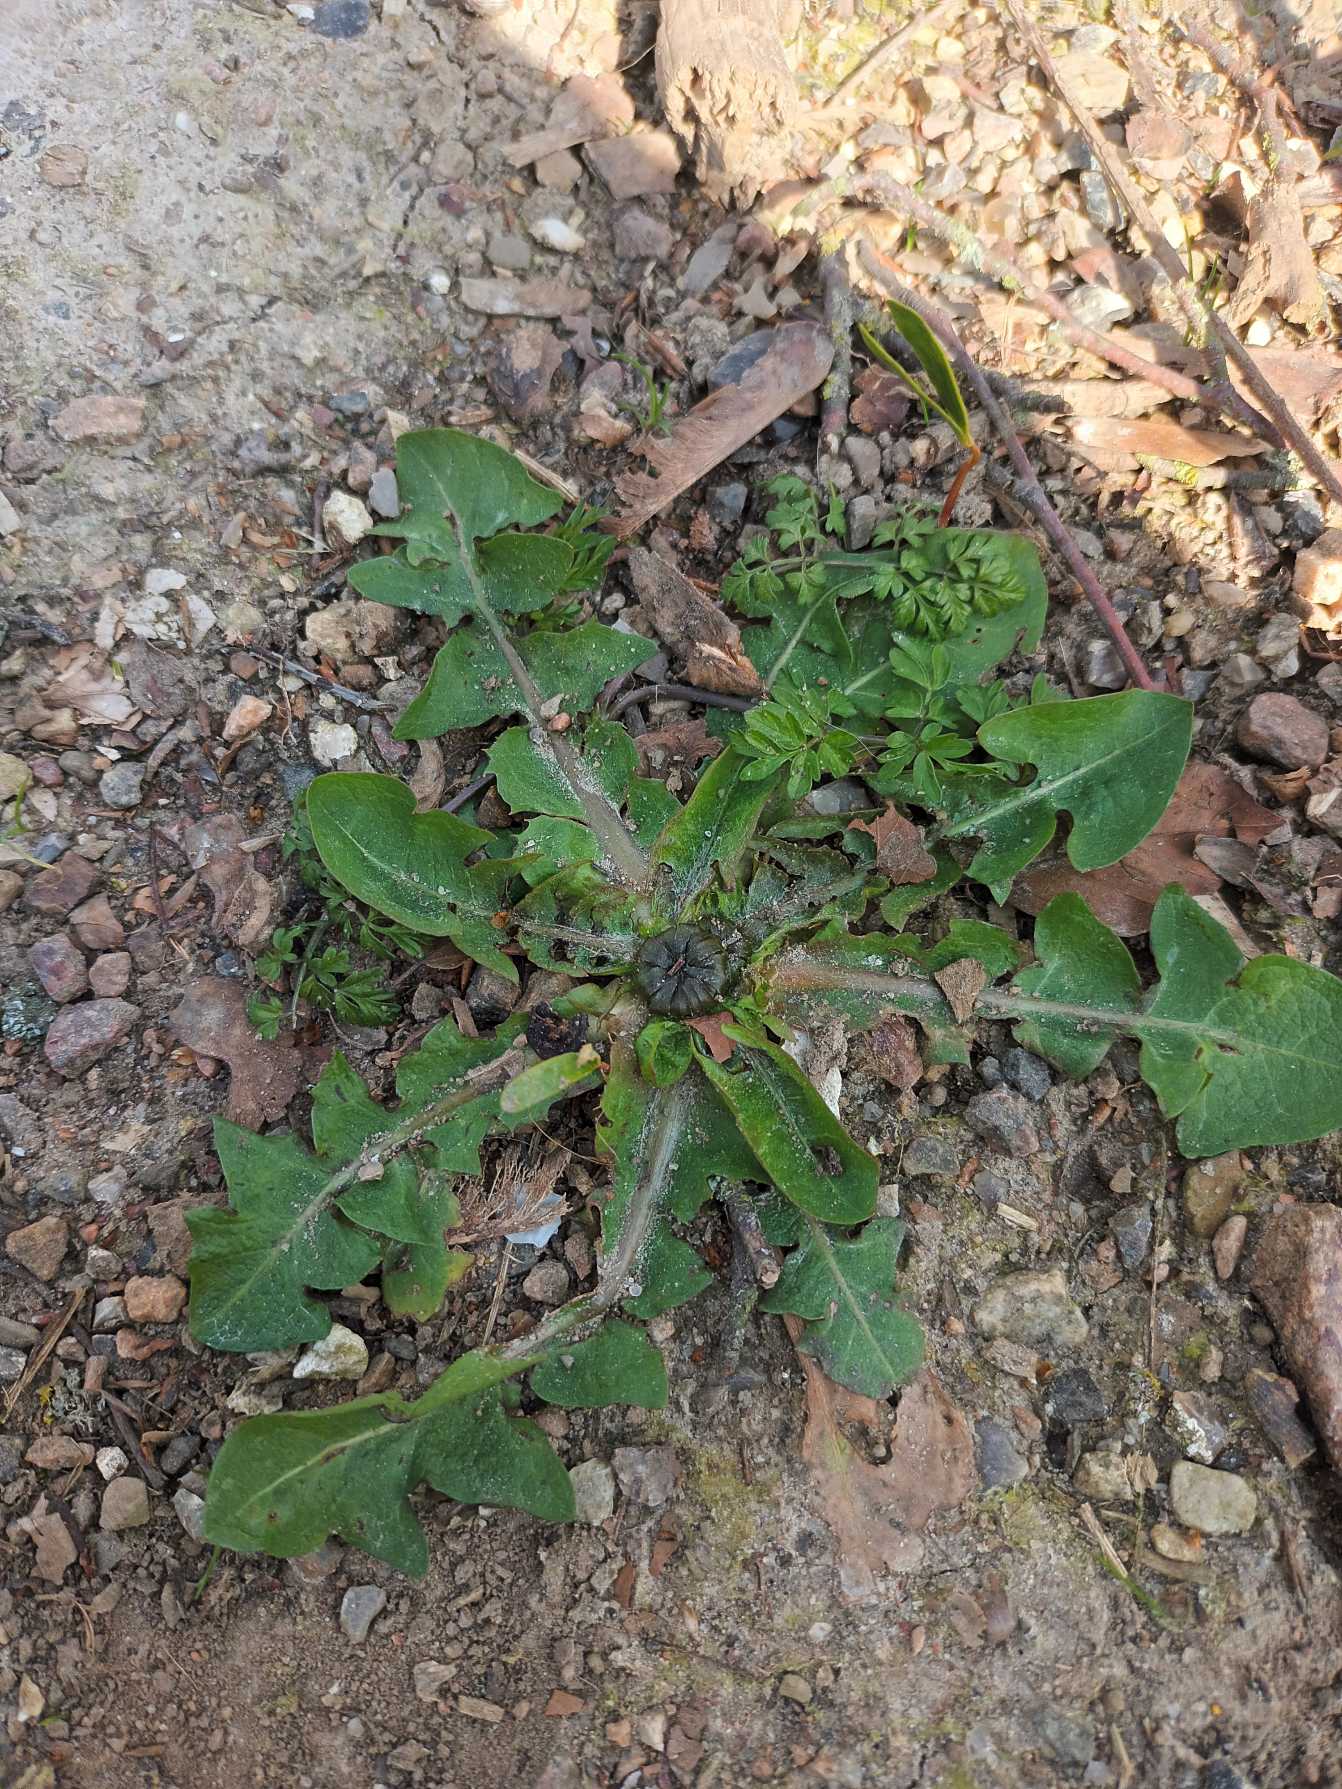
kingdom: Plantae
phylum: Tracheophyta
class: Magnoliopsida
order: Asterales
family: Asteraceae
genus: Taraxacum
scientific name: Taraxacum
